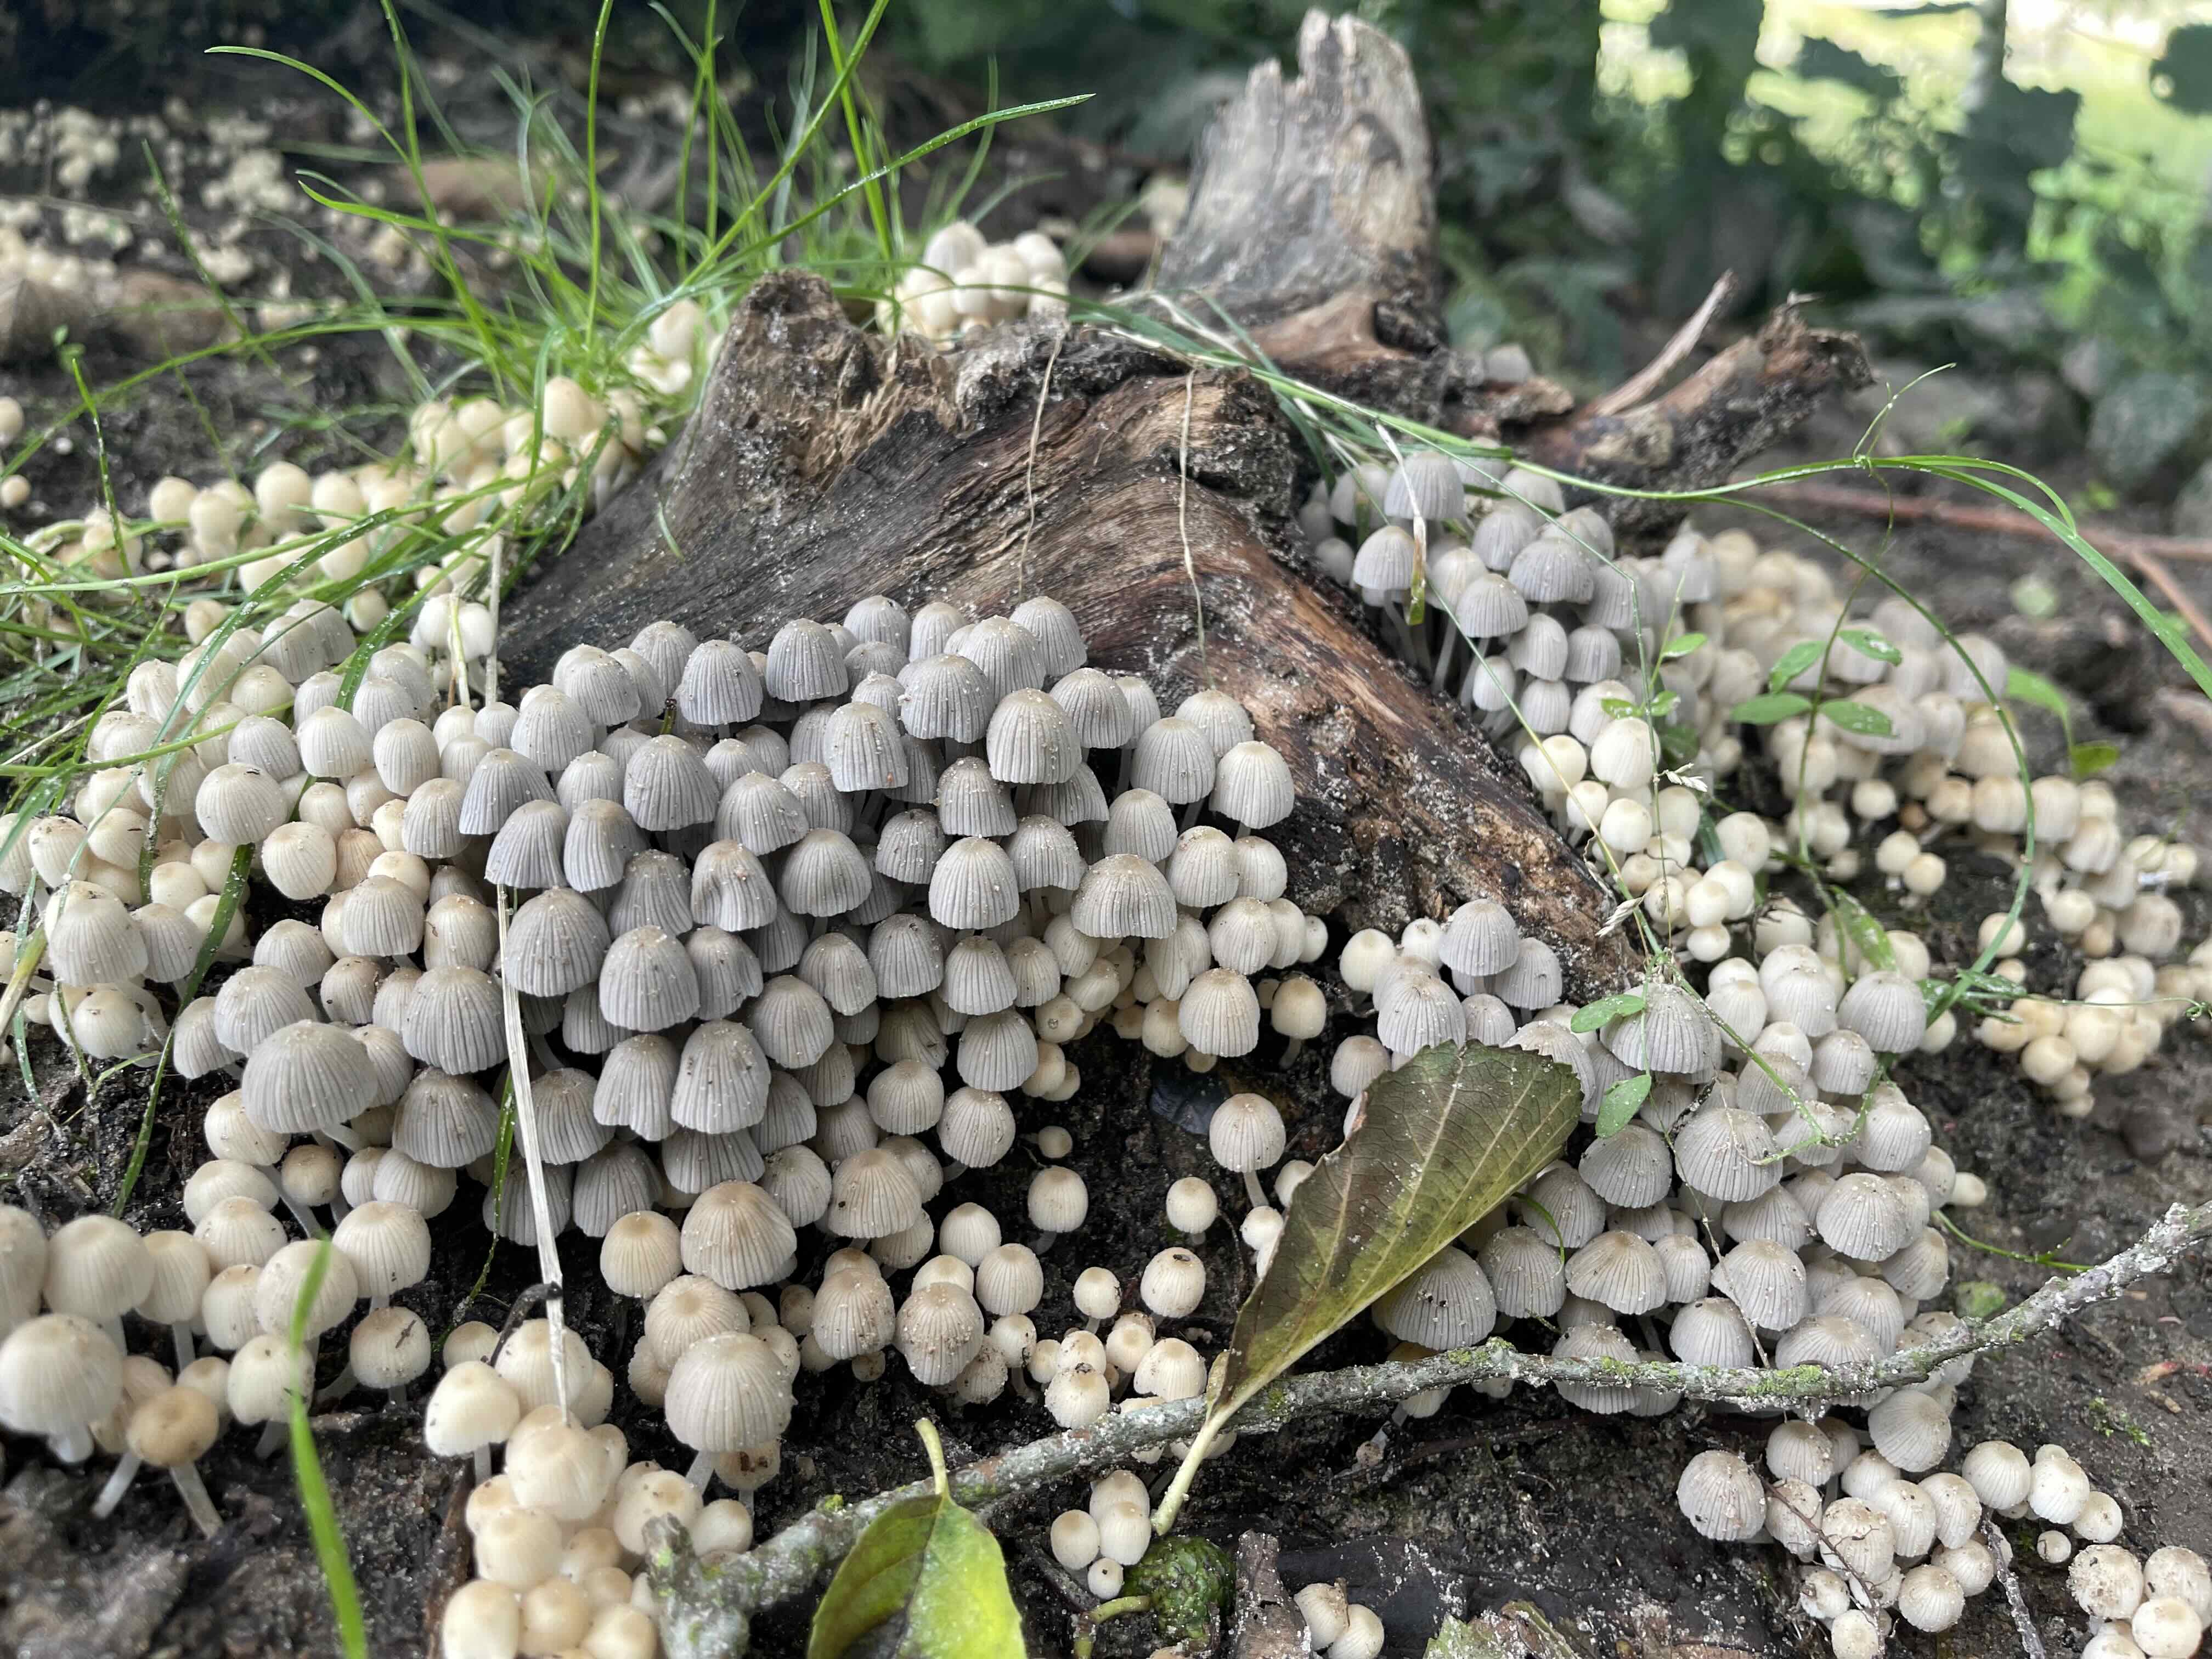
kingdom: Fungi
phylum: Basidiomycota
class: Agaricomycetes
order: Agaricales
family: Psathyrellaceae
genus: Coprinellus
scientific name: Coprinellus disseminatus
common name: bredsået blækhat
